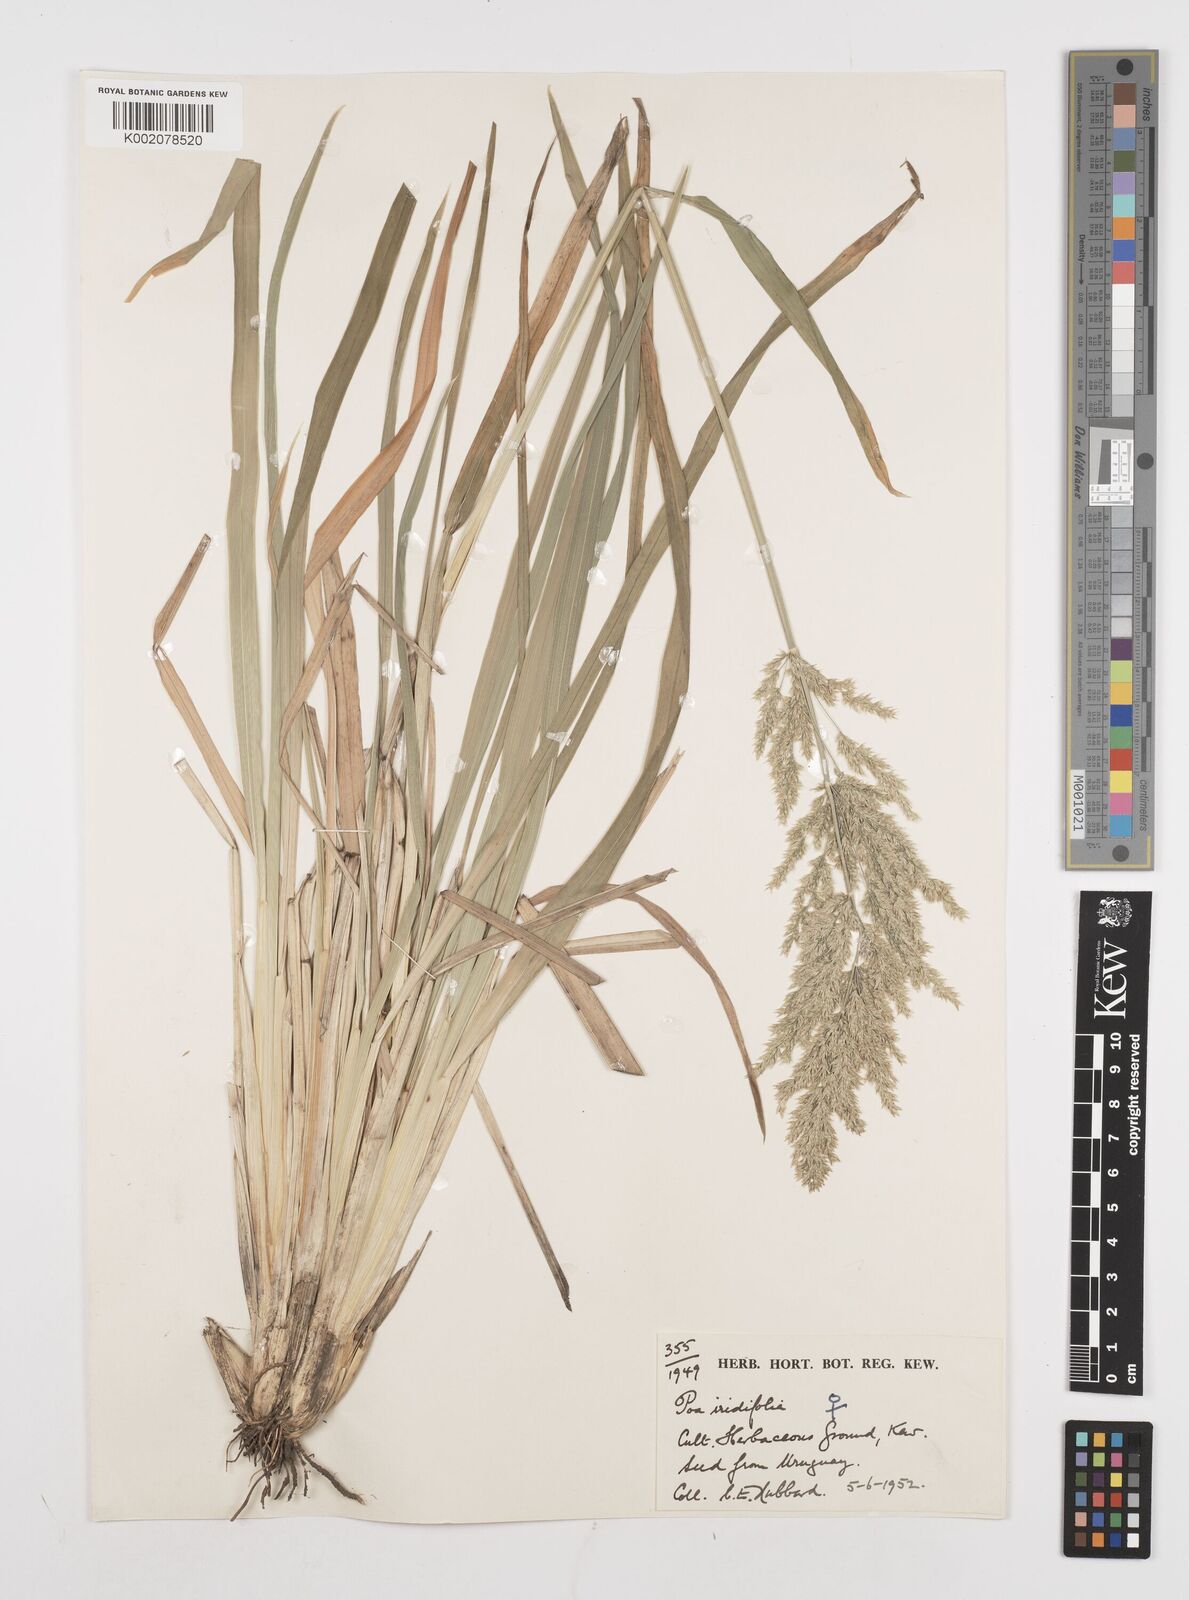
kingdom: Plantae
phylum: Tracheophyta
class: Liliopsida
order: Poales
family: Poaceae
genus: Poa
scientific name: Poa iridifolia
